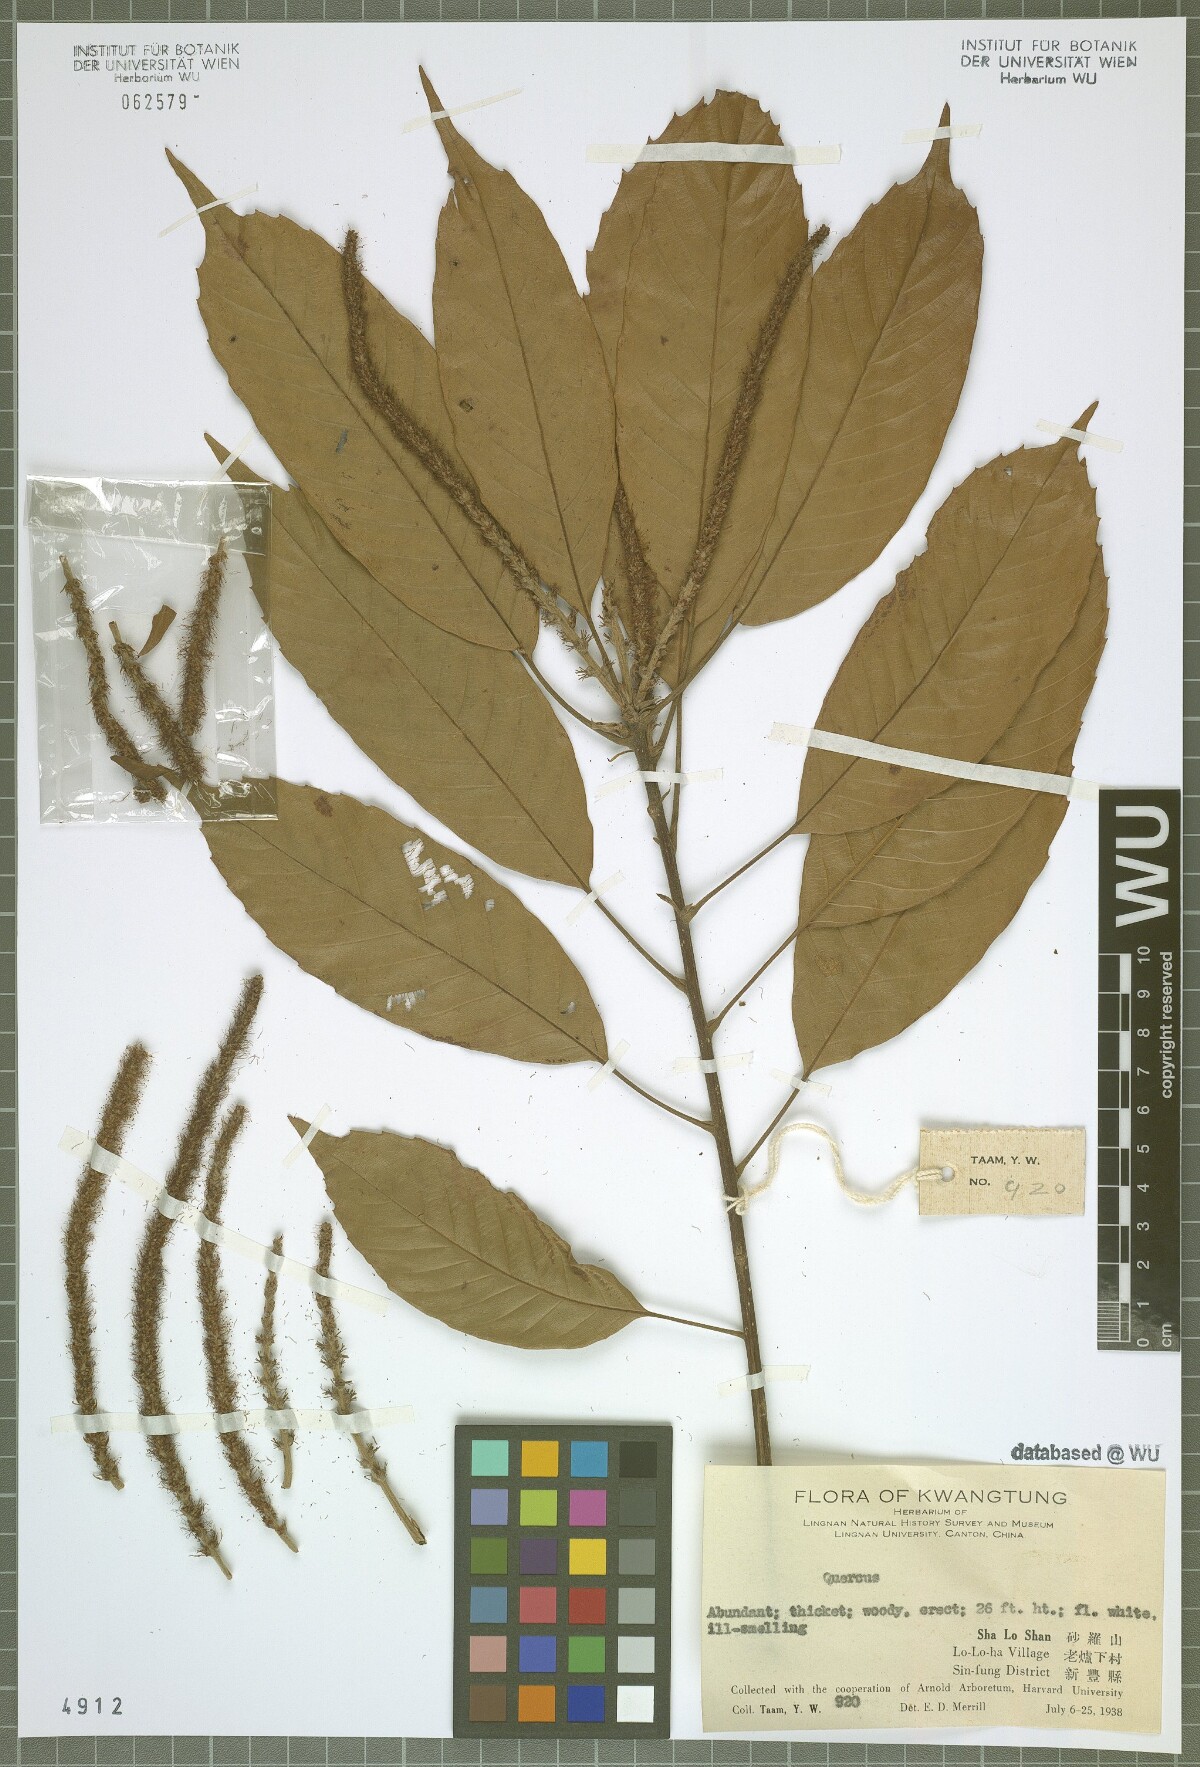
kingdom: Plantae
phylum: Tracheophyta
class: Magnoliopsida
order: Fagales
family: Fagaceae
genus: Quercus
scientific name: Quercus
